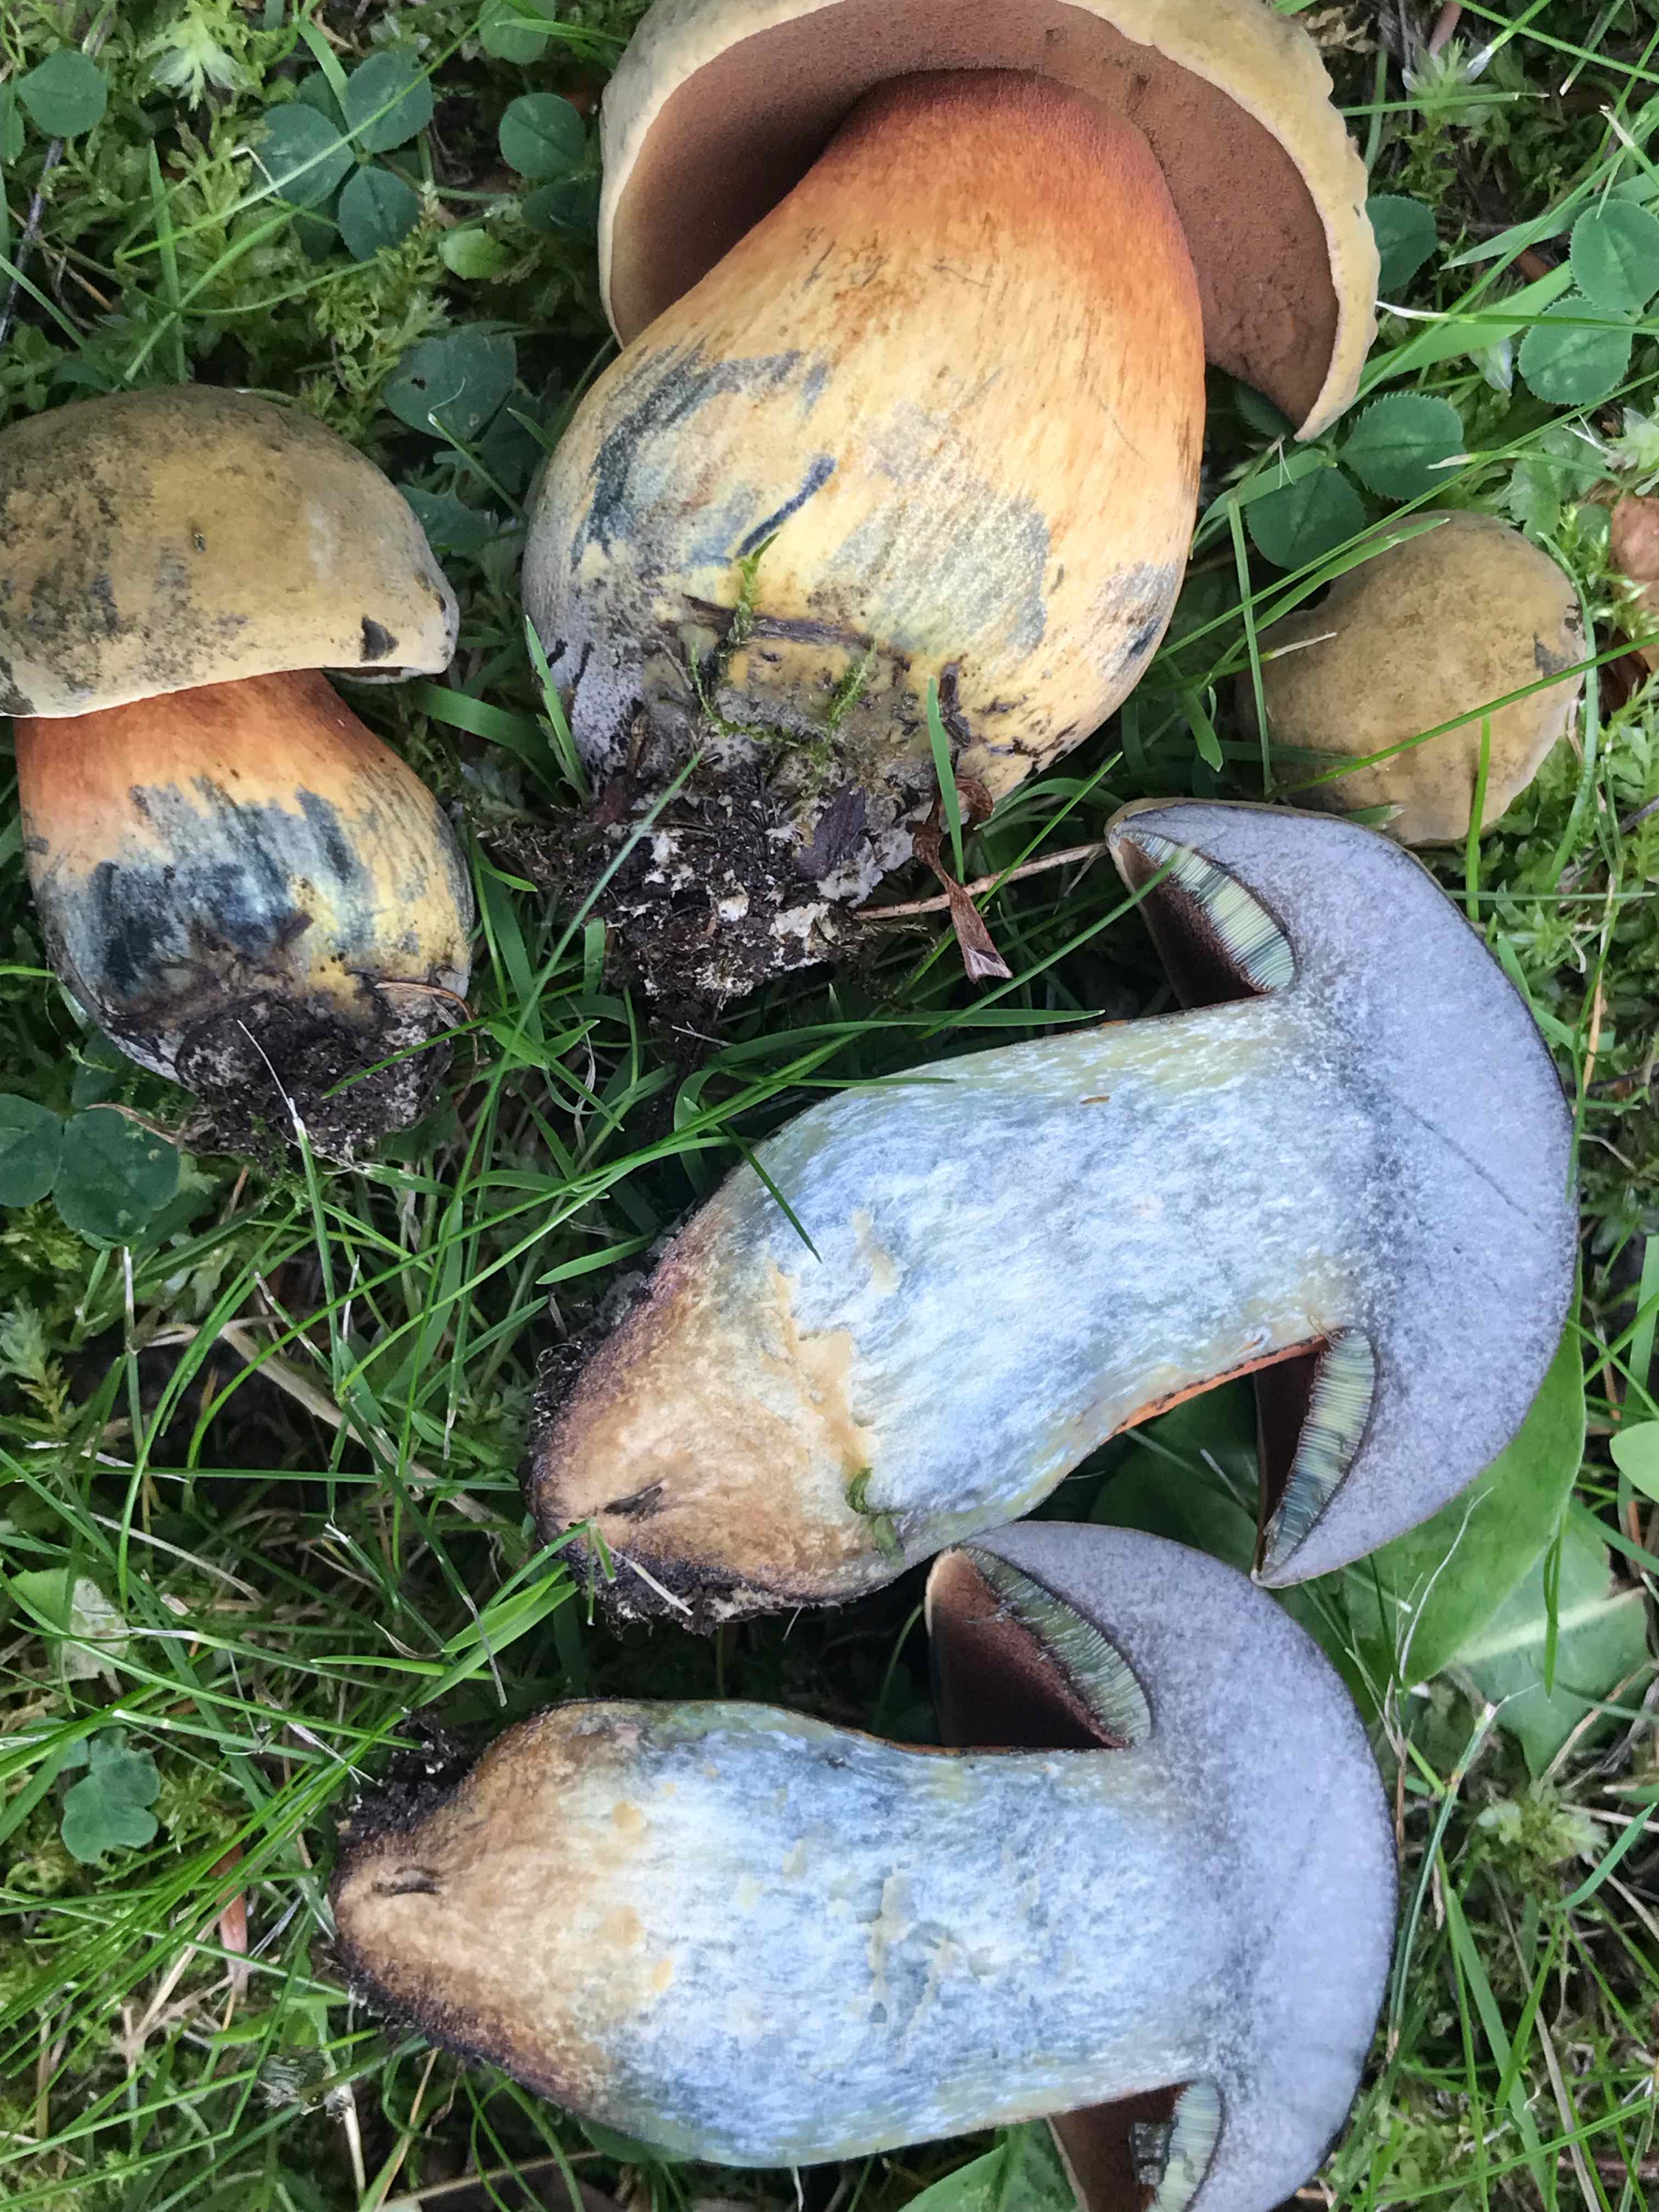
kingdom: Fungi
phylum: Basidiomycota
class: Agaricomycetes
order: Boletales
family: Boletaceae
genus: Suillellus
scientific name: Suillellus luridus
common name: netstokket indigorørhat
